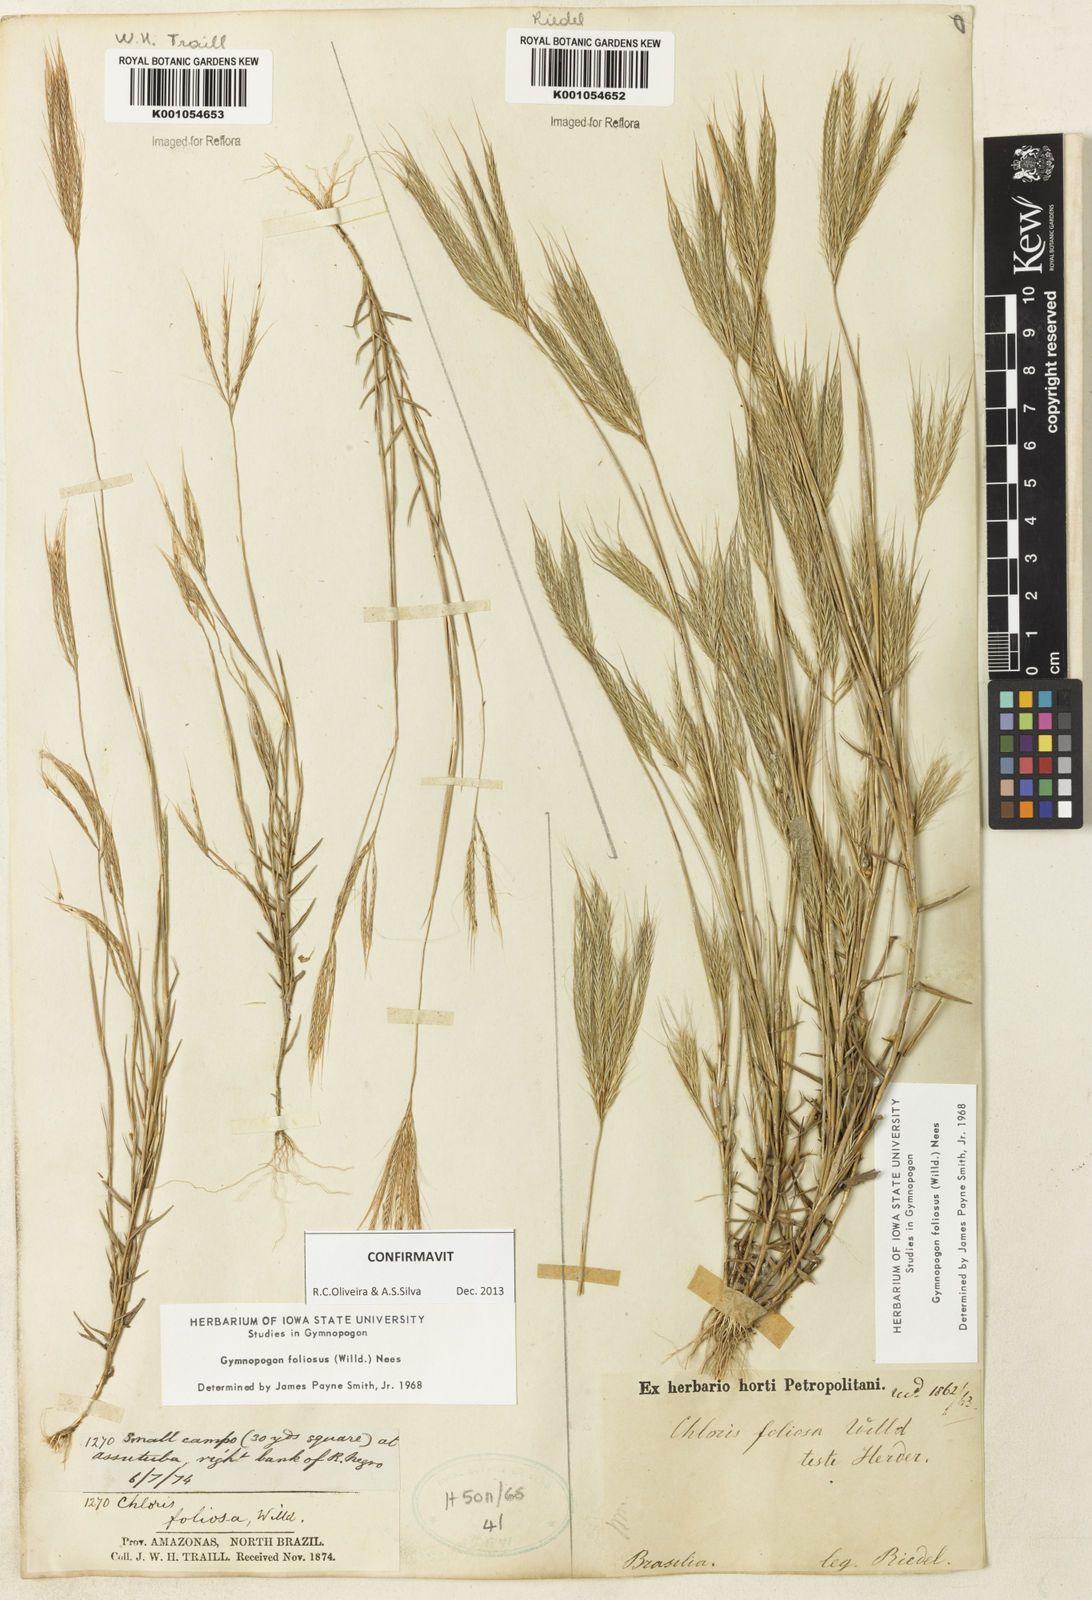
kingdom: Plantae
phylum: Tracheophyta
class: Liliopsida
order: Poales
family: Poaceae
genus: Gymnopogon
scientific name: Gymnopogon foliosus
